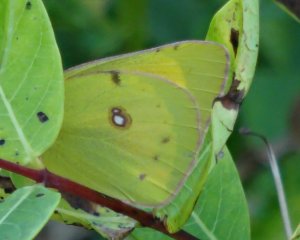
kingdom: Animalia
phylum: Arthropoda
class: Insecta
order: Lepidoptera
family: Pieridae
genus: Colias
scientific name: Colias eurytheme
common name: Orange Sulphur
